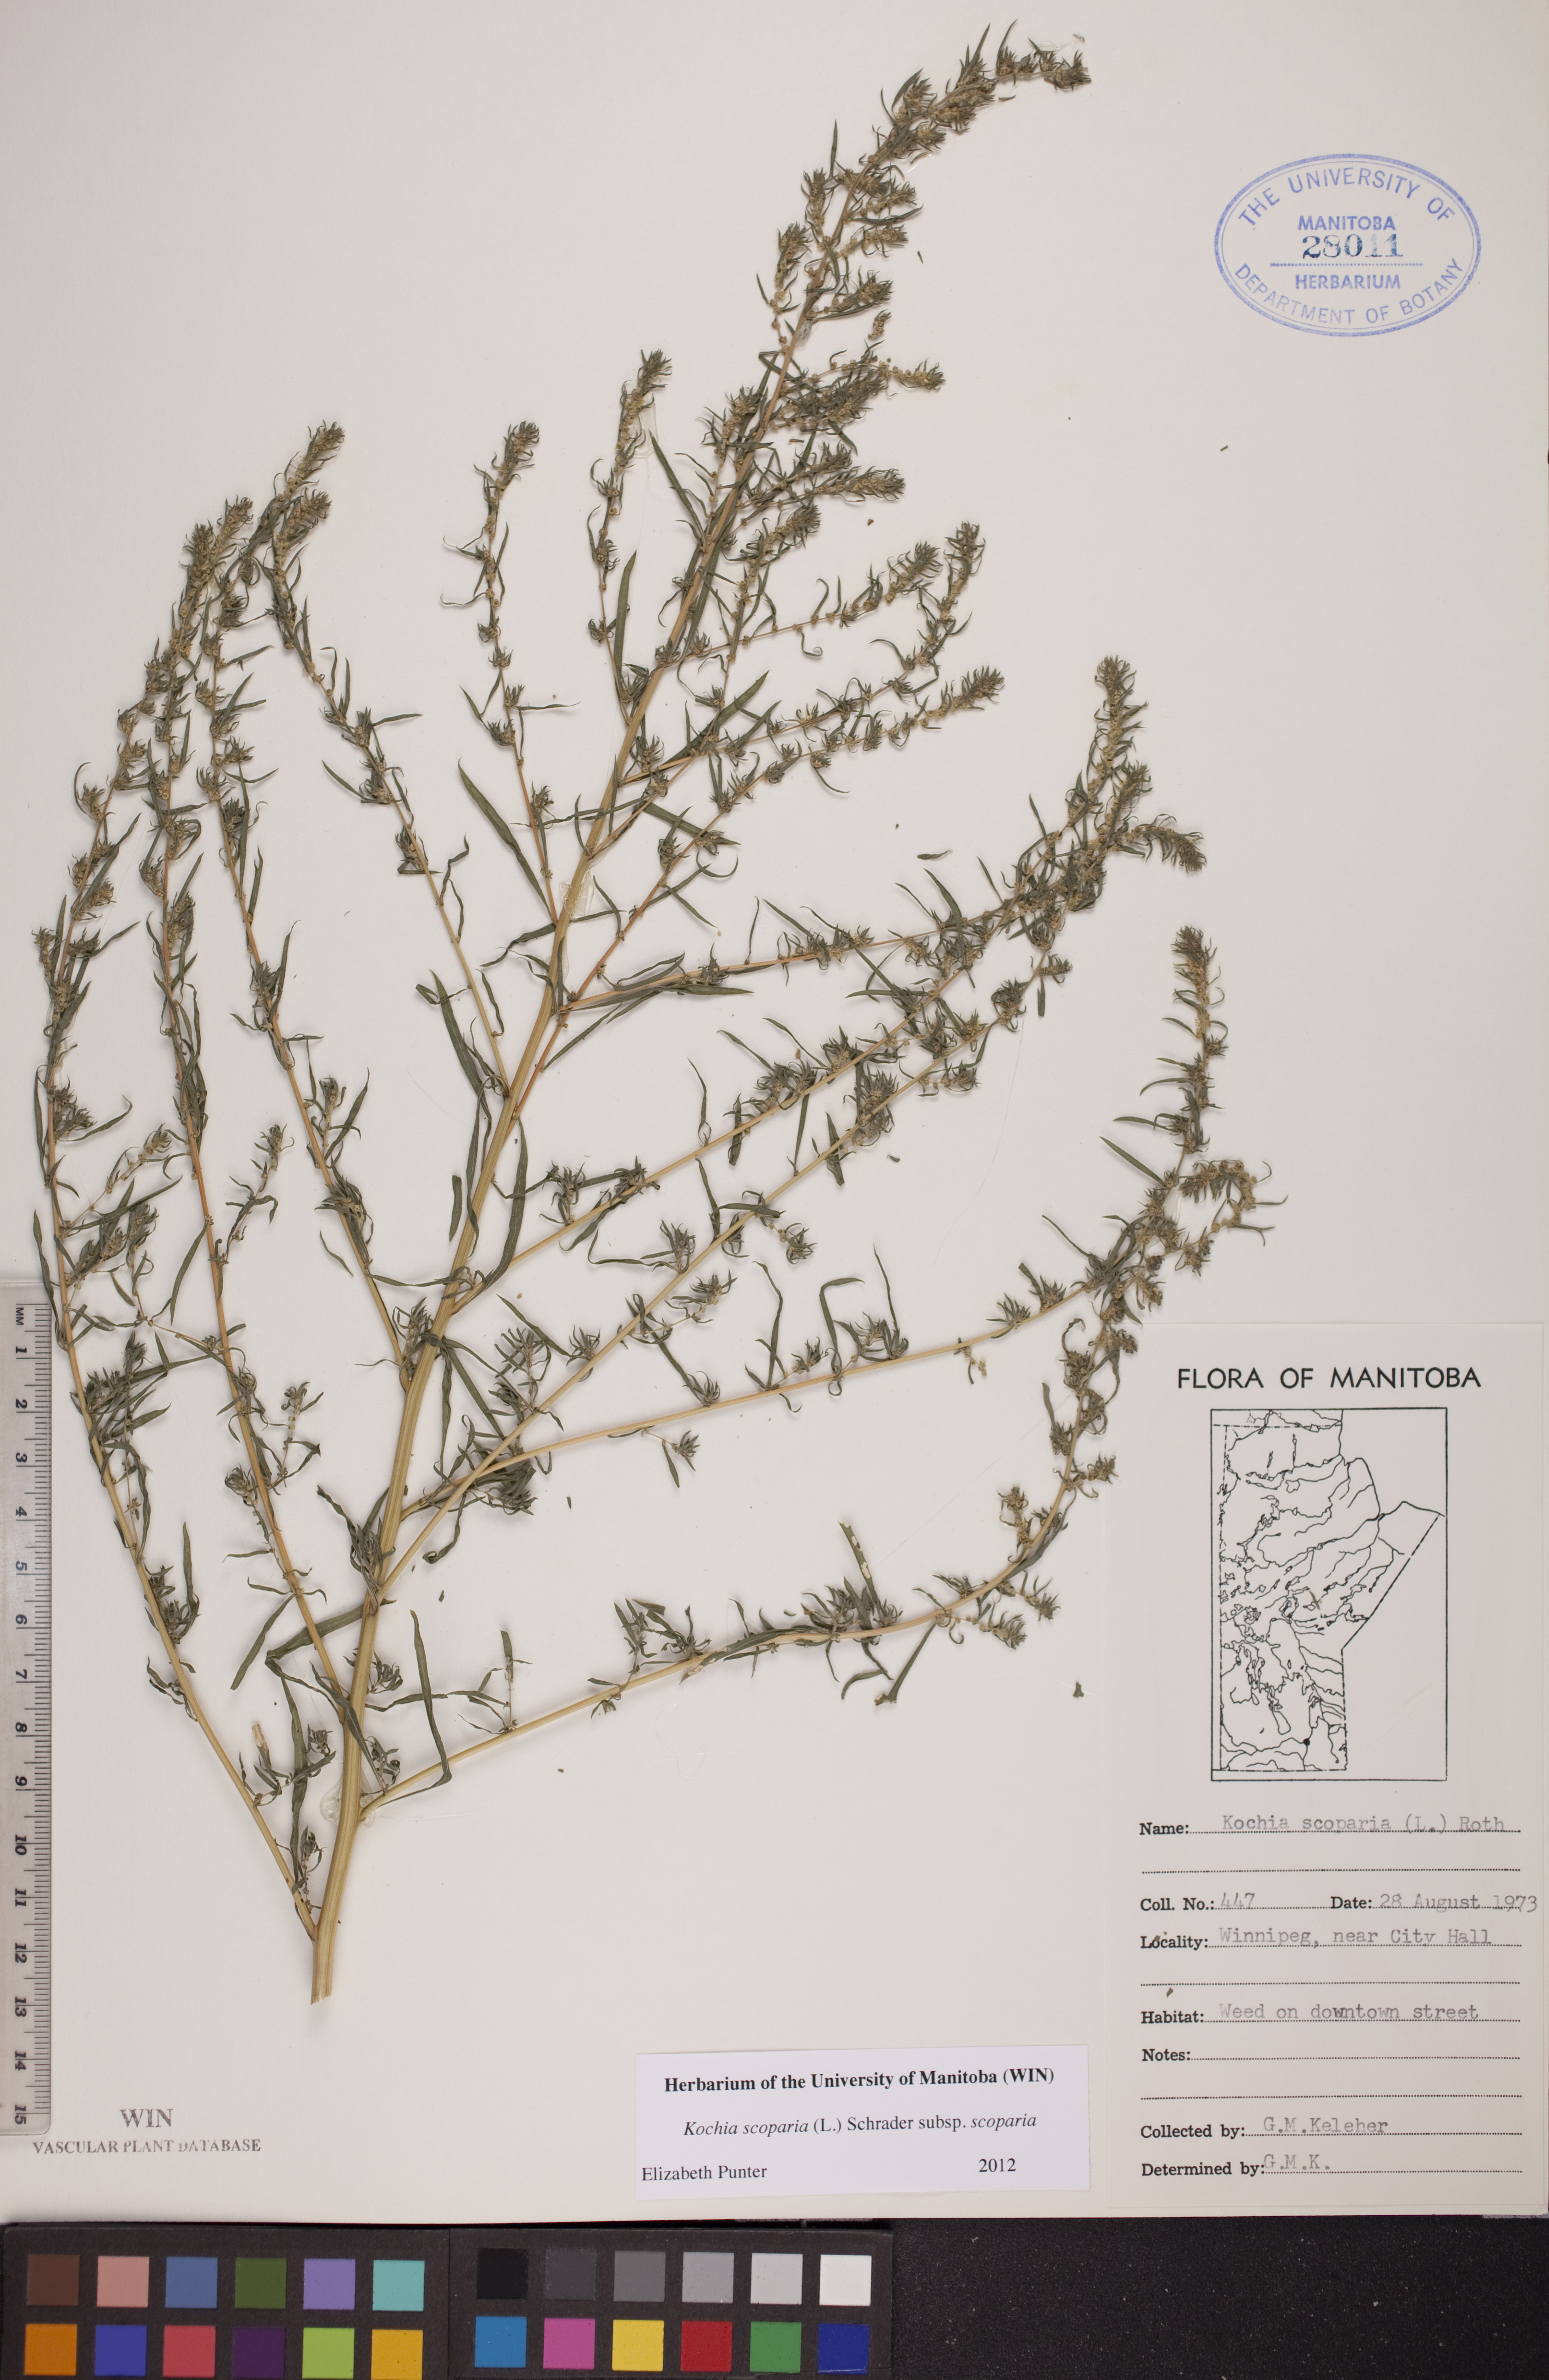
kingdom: Plantae
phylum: Tracheophyta
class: Magnoliopsida
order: Caryophyllales
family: Amaranthaceae
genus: Bassia
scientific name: Bassia scoparia
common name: Belvedere
